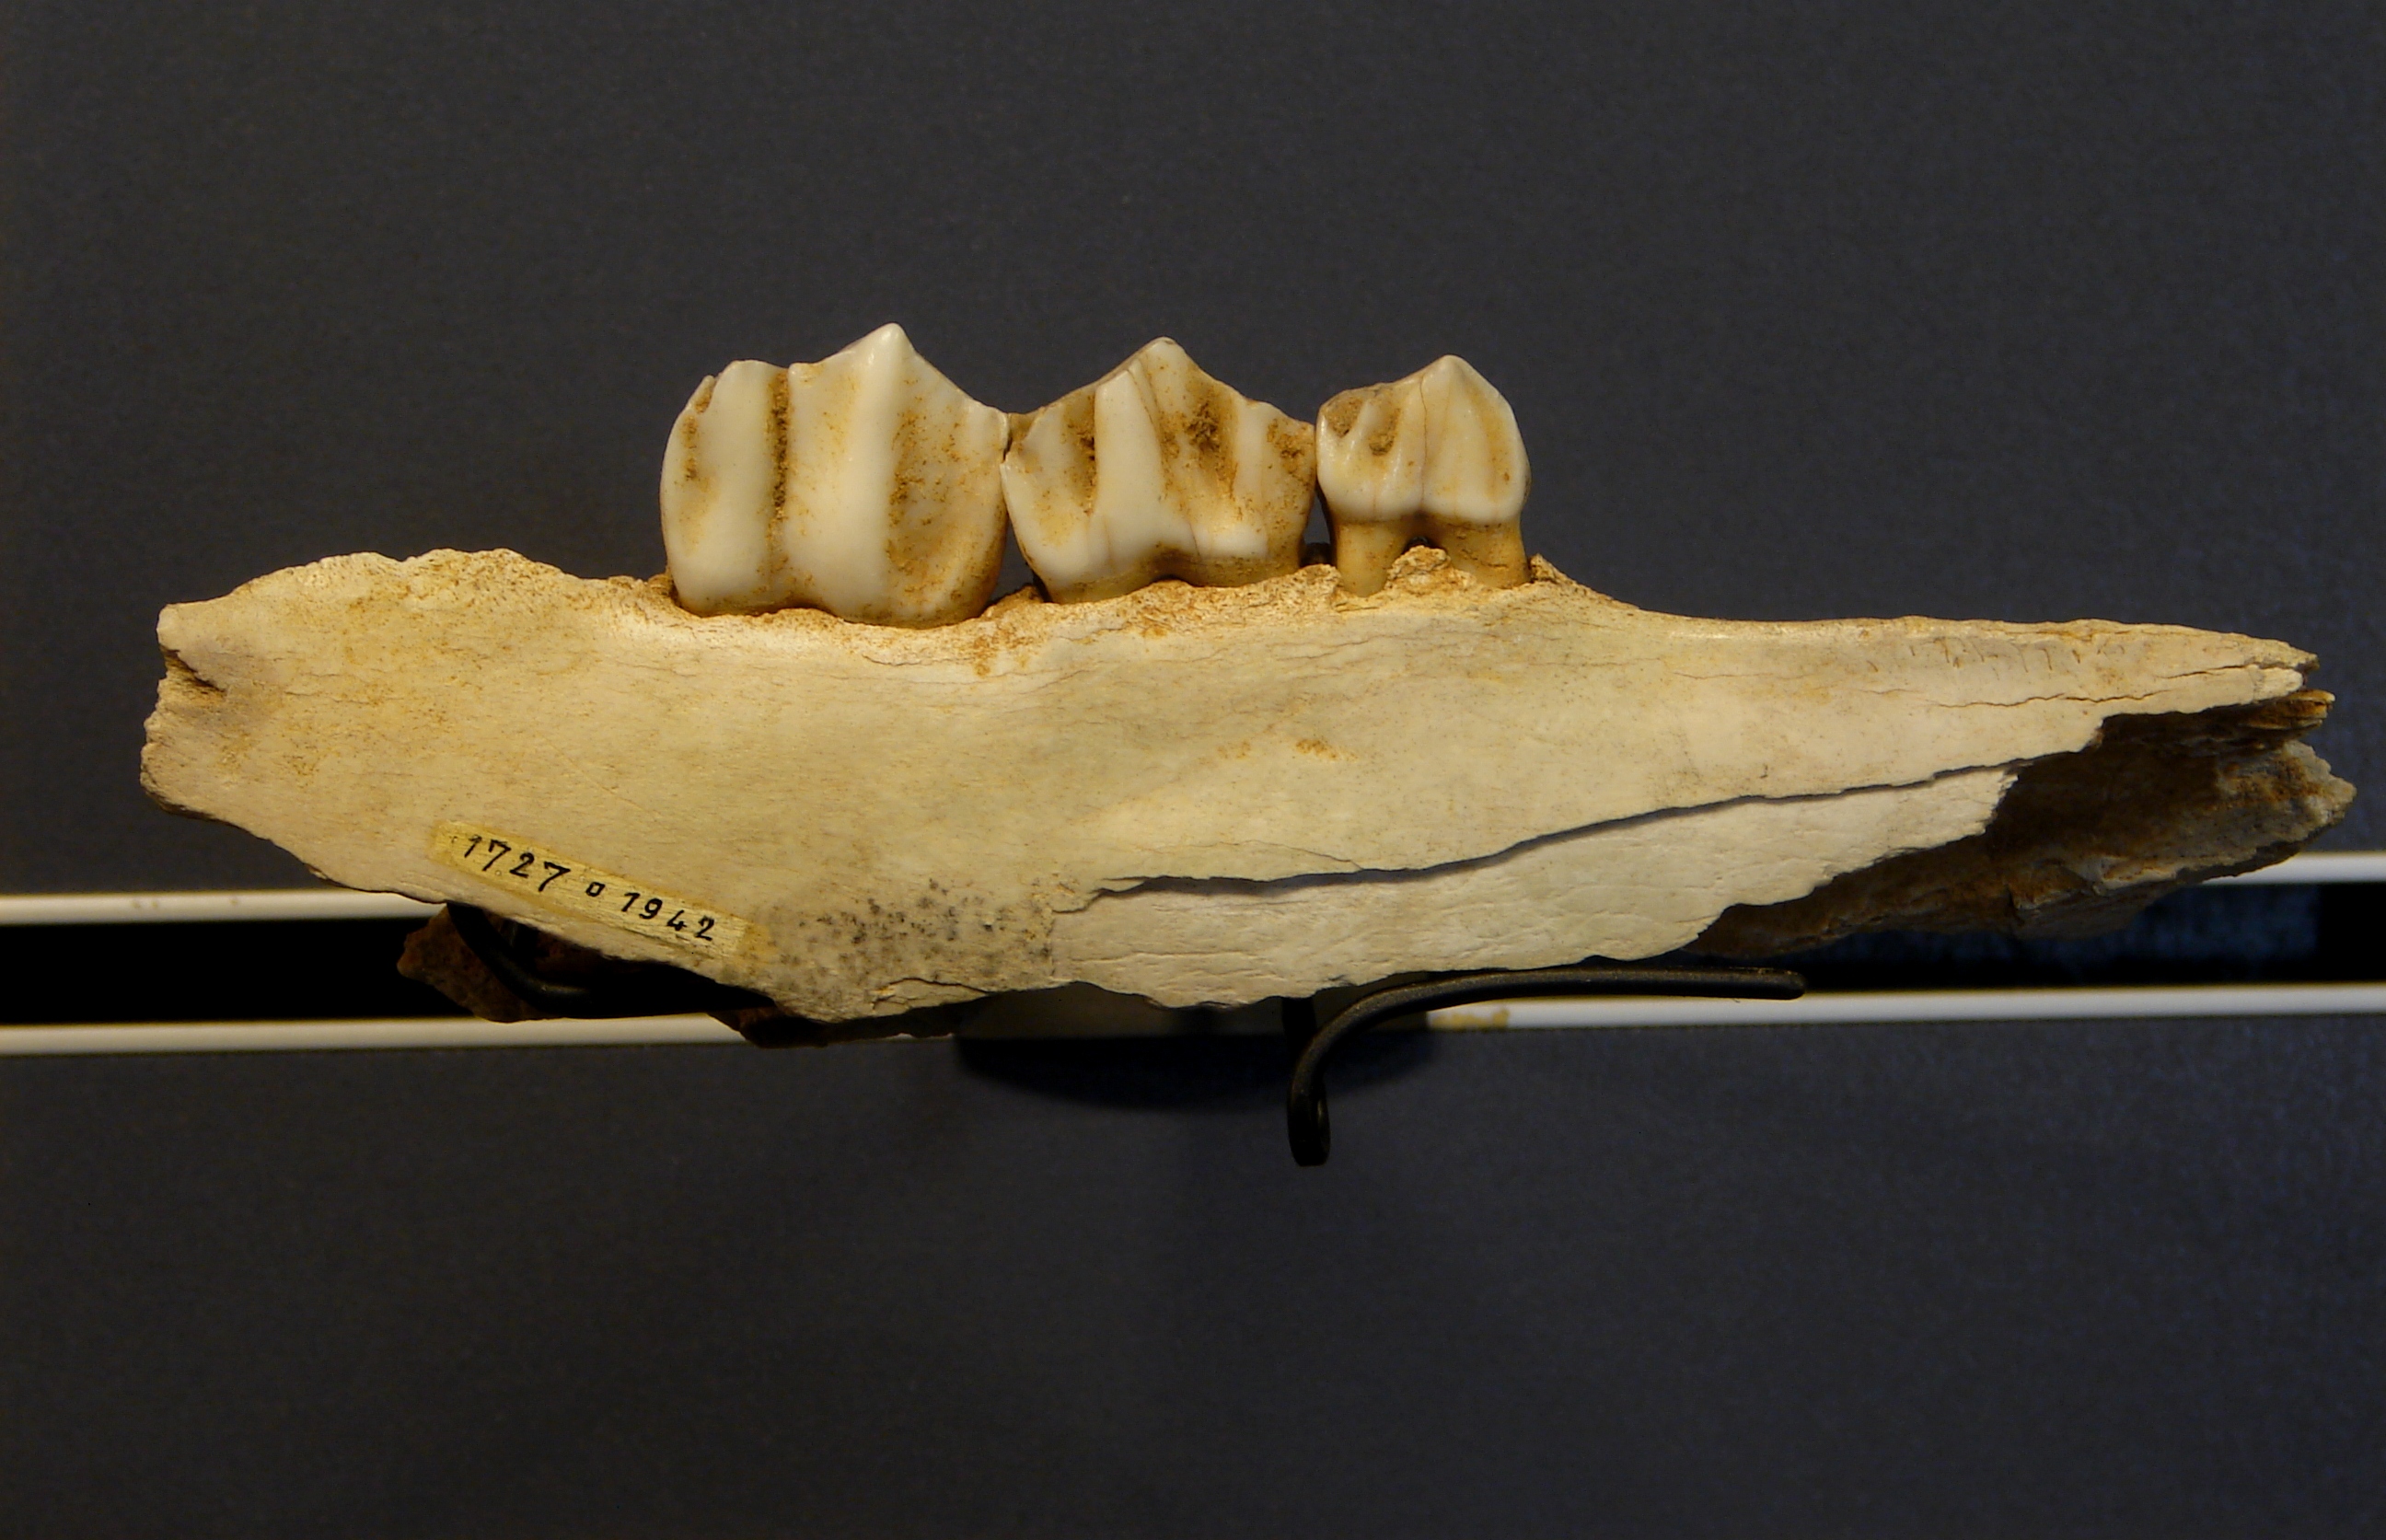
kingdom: Animalia
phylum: Chordata
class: Mammalia
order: Artiodactyla
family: Cervidae
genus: Rangifer
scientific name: Rangifer tarandus
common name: Reindeer
